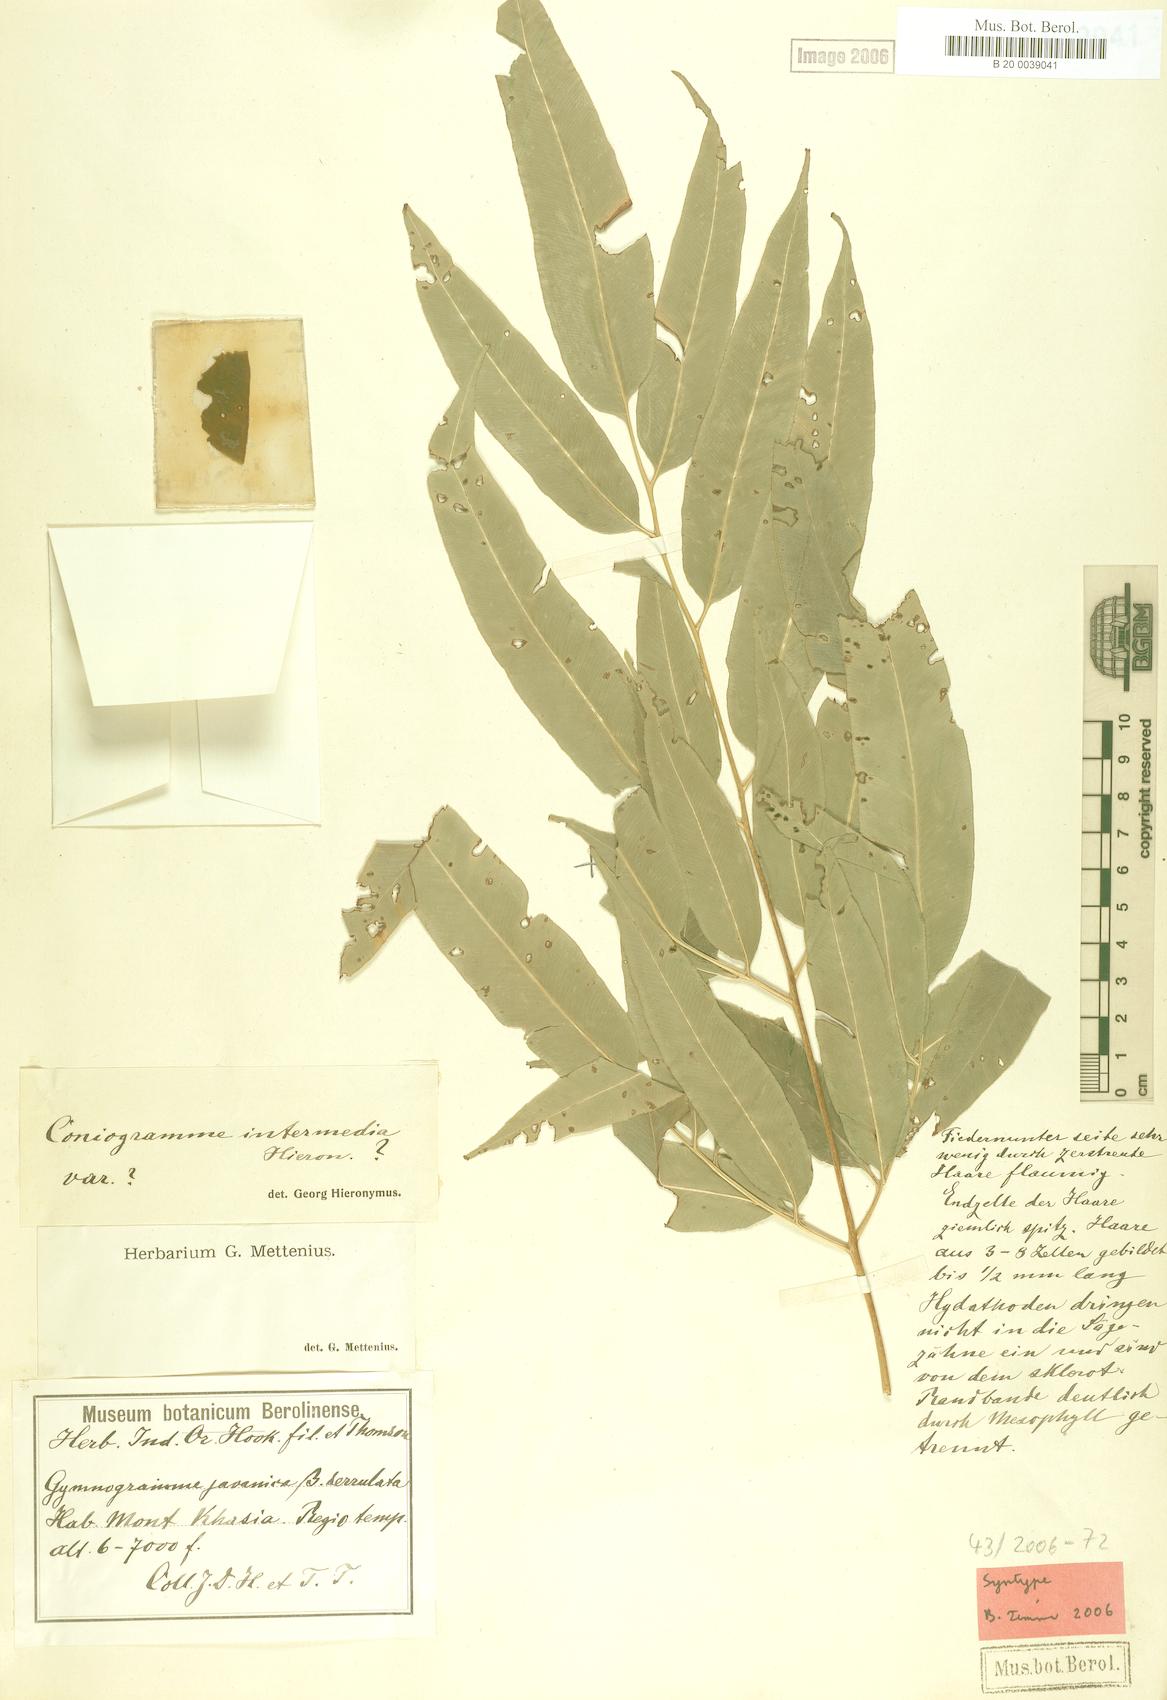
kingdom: Plantae
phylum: Tracheophyta
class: Polypodiopsida
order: Polypodiales
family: Pteridaceae
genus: Coniogramme
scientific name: Coniogramme intermedia
